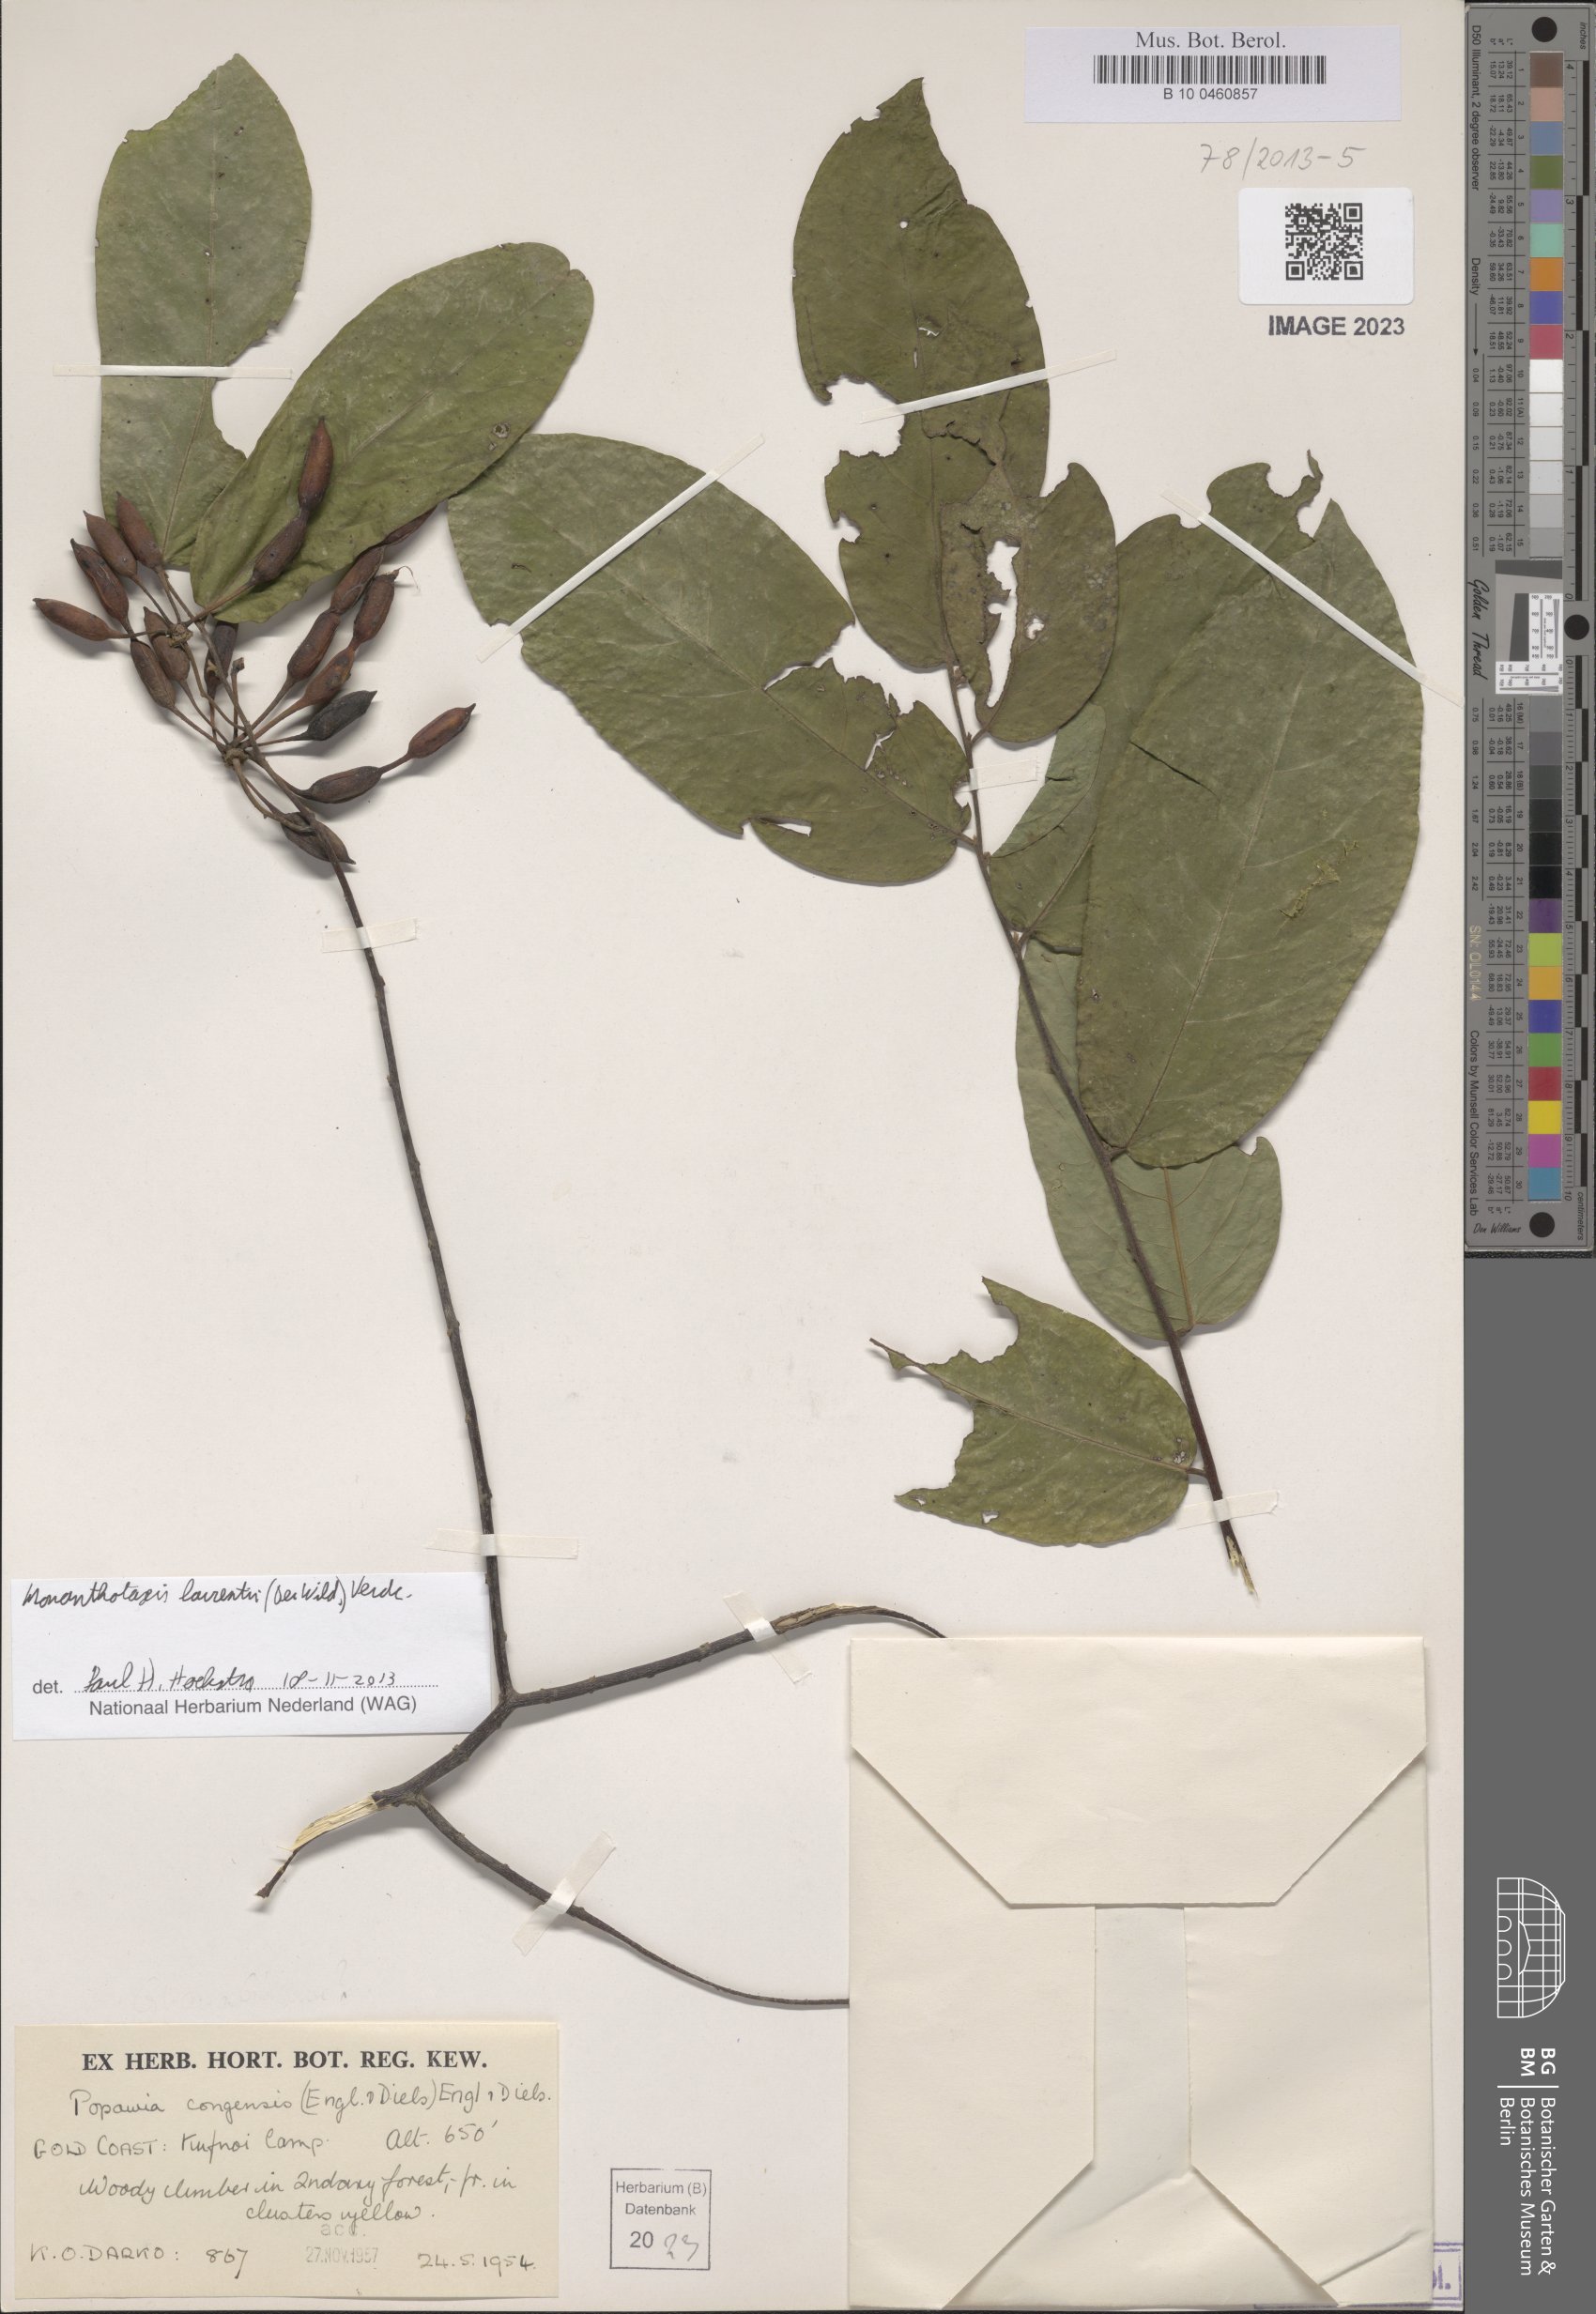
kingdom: Plantae
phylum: Tracheophyta
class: Magnoliopsida
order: Magnoliales
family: Annonaceae
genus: Monanthotaxis
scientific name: Monanthotaxis laurentii
